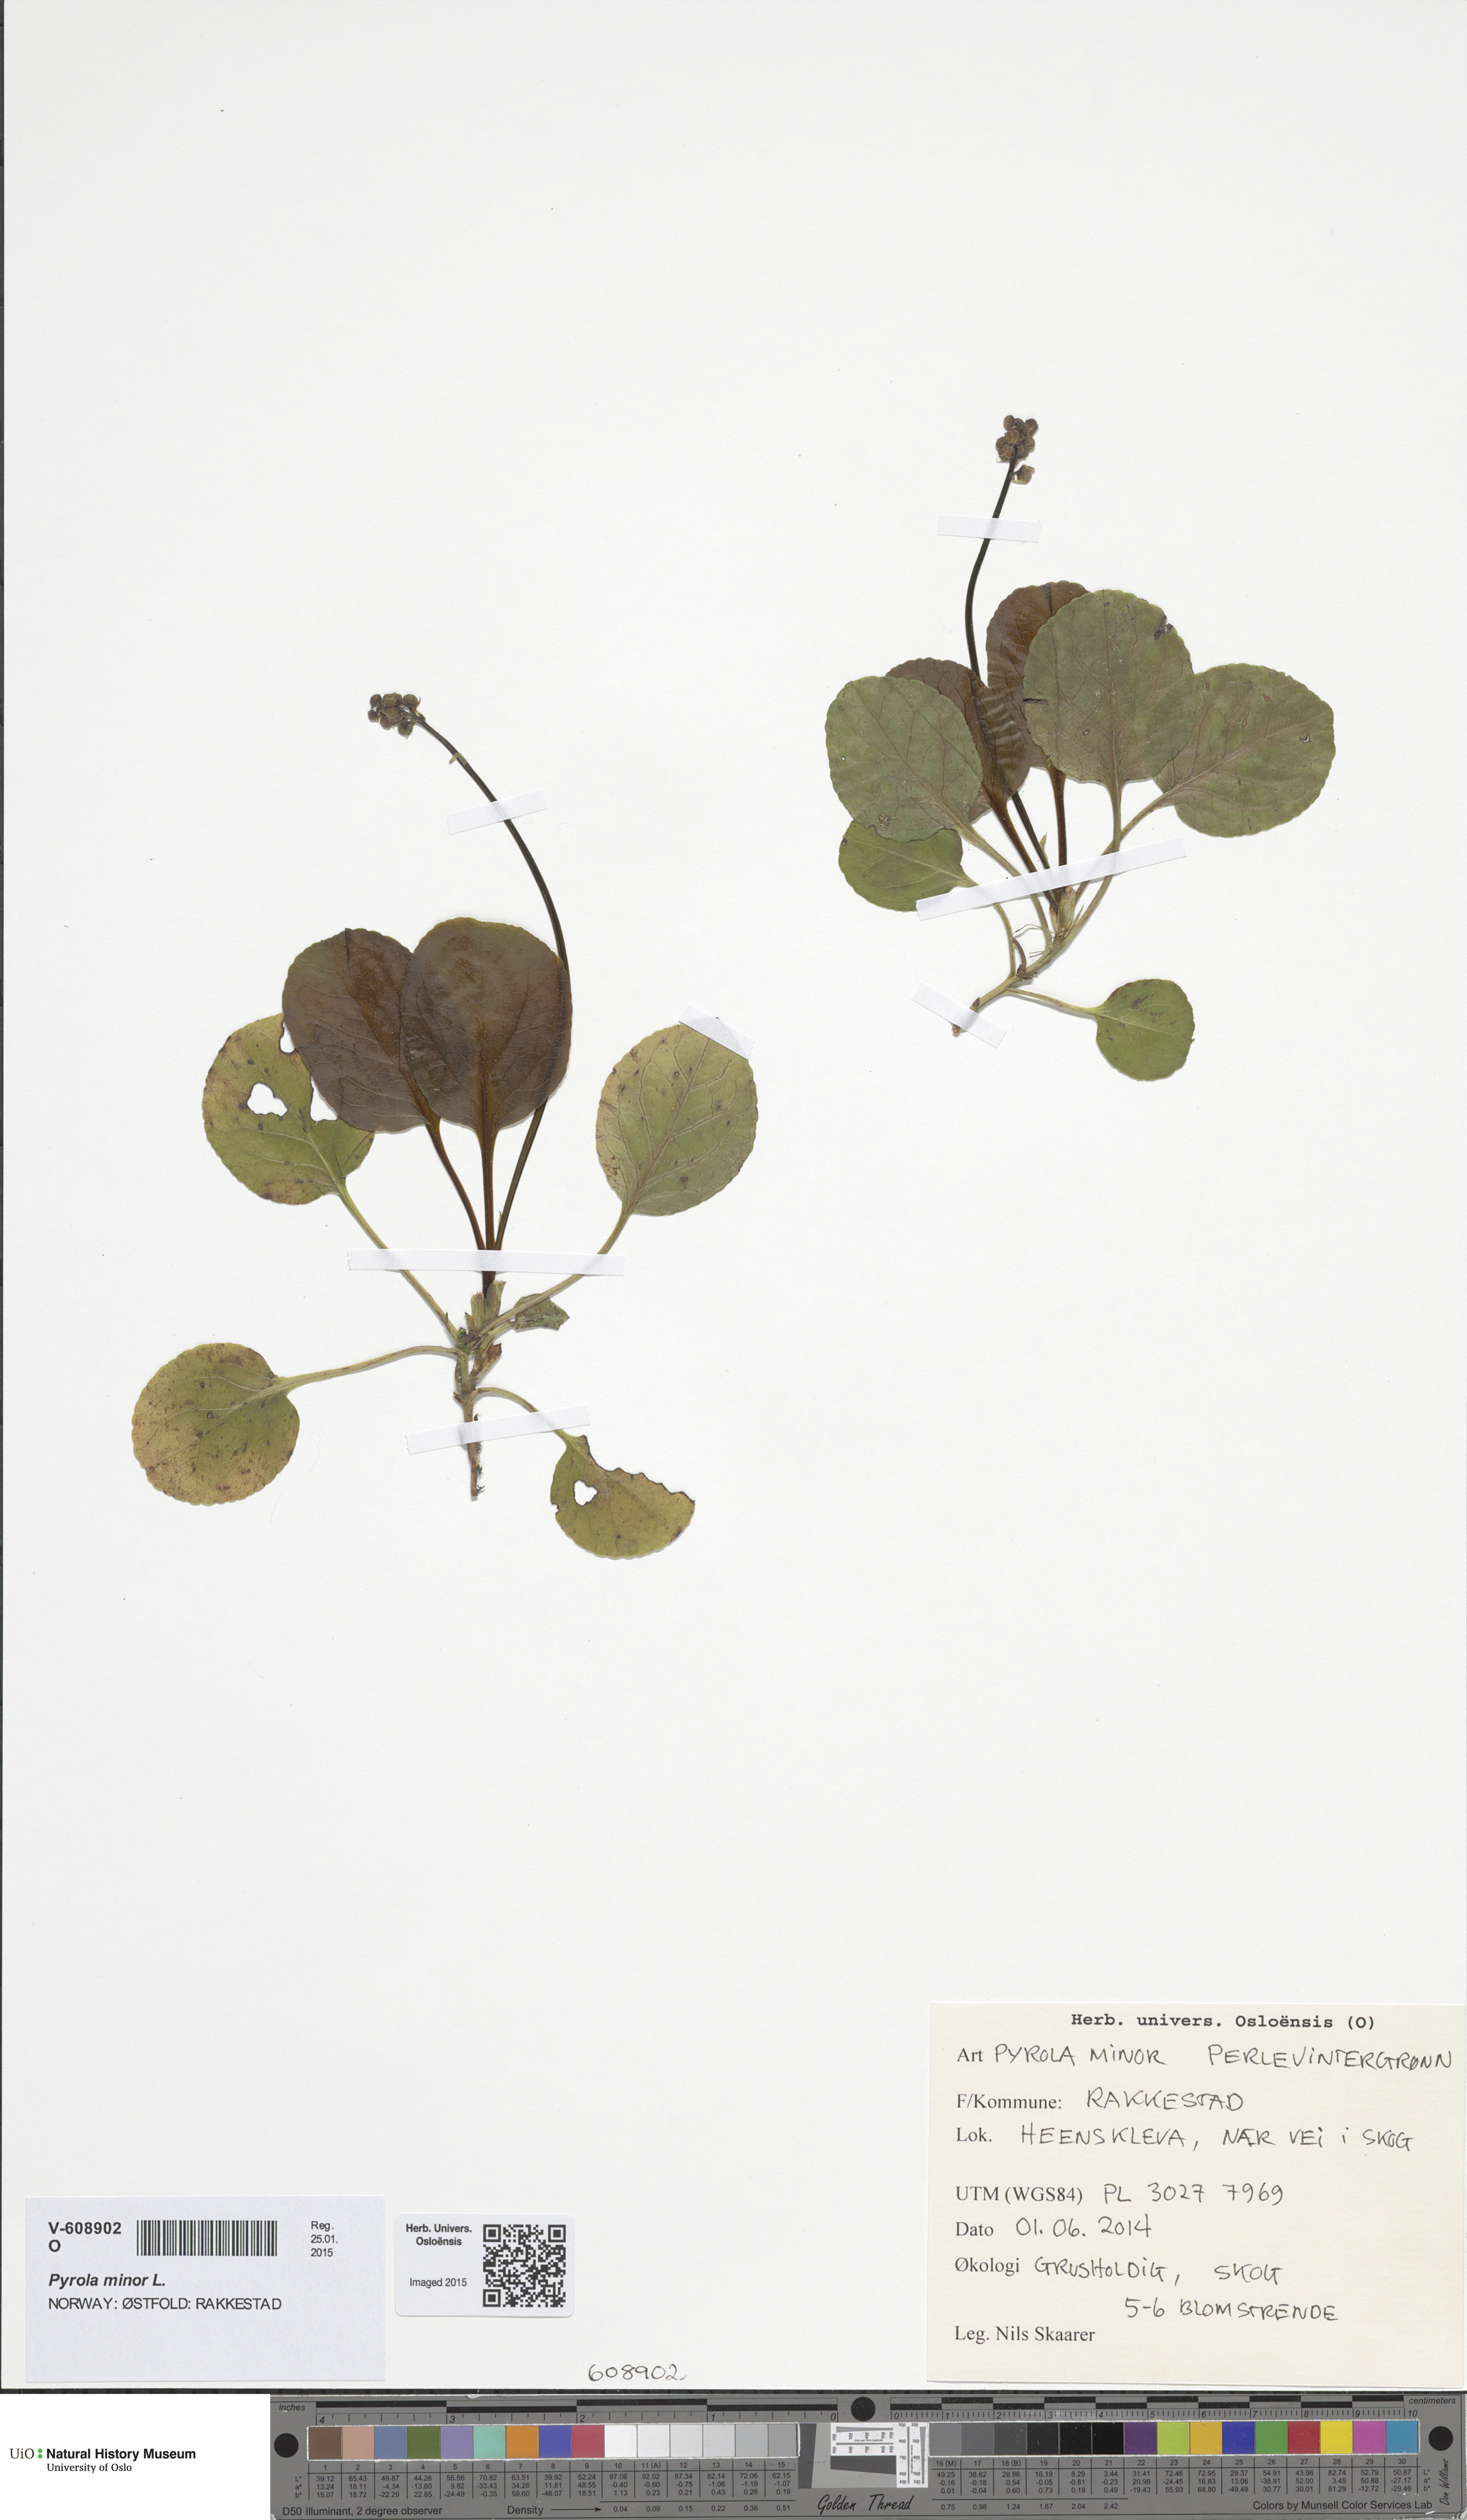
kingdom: Plantae
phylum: Tracheophyta
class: Magnoliopsida
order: Ericales
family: Ericaceae
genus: Pyrola
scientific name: Pyrola minor
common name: Common wintergreen
